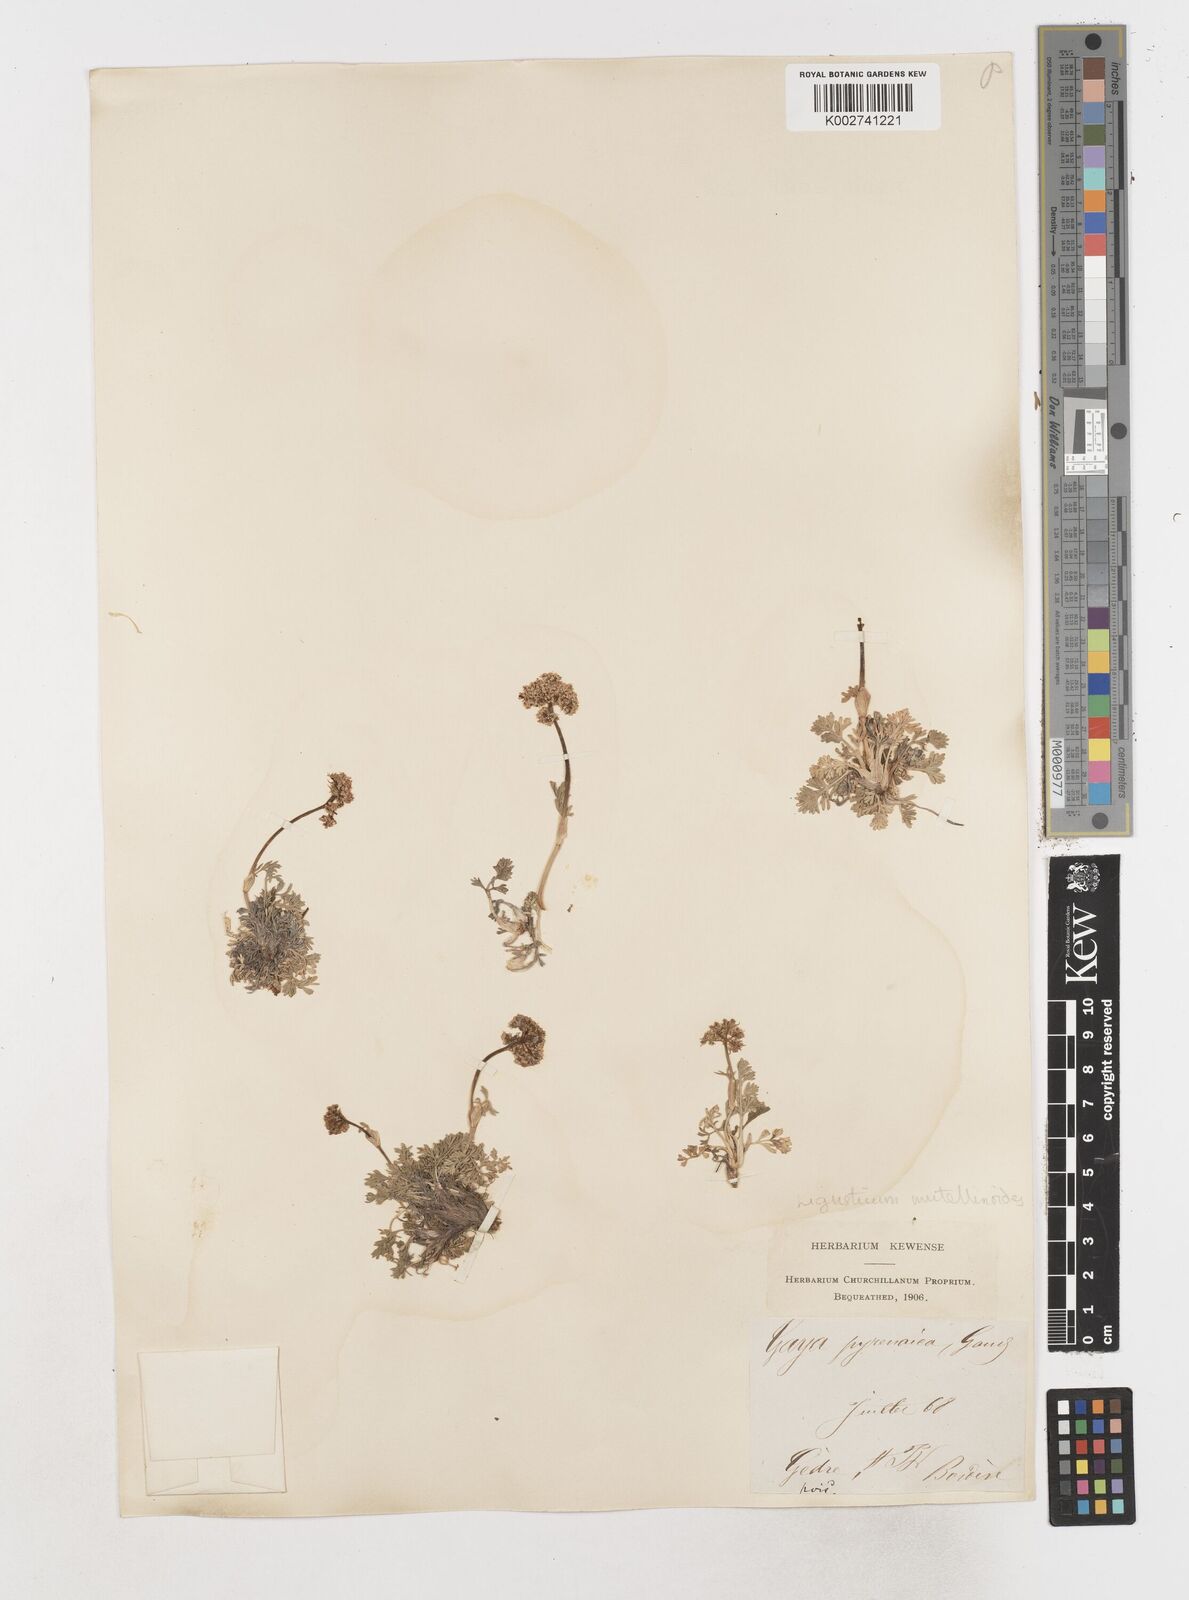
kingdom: Plantae
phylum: Tracheophyta
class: Magnoliopsida
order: Apiales
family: Apiaceae
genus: Pachypleurum
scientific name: Pachypleurum mutellinoides
